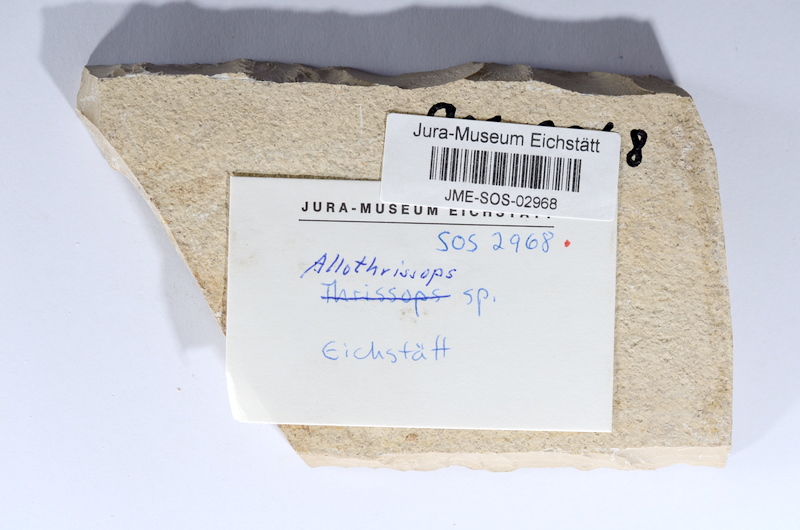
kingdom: Animalia
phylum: Chordata
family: Allothrissopidae
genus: Allothrissops
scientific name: Allothrissops
